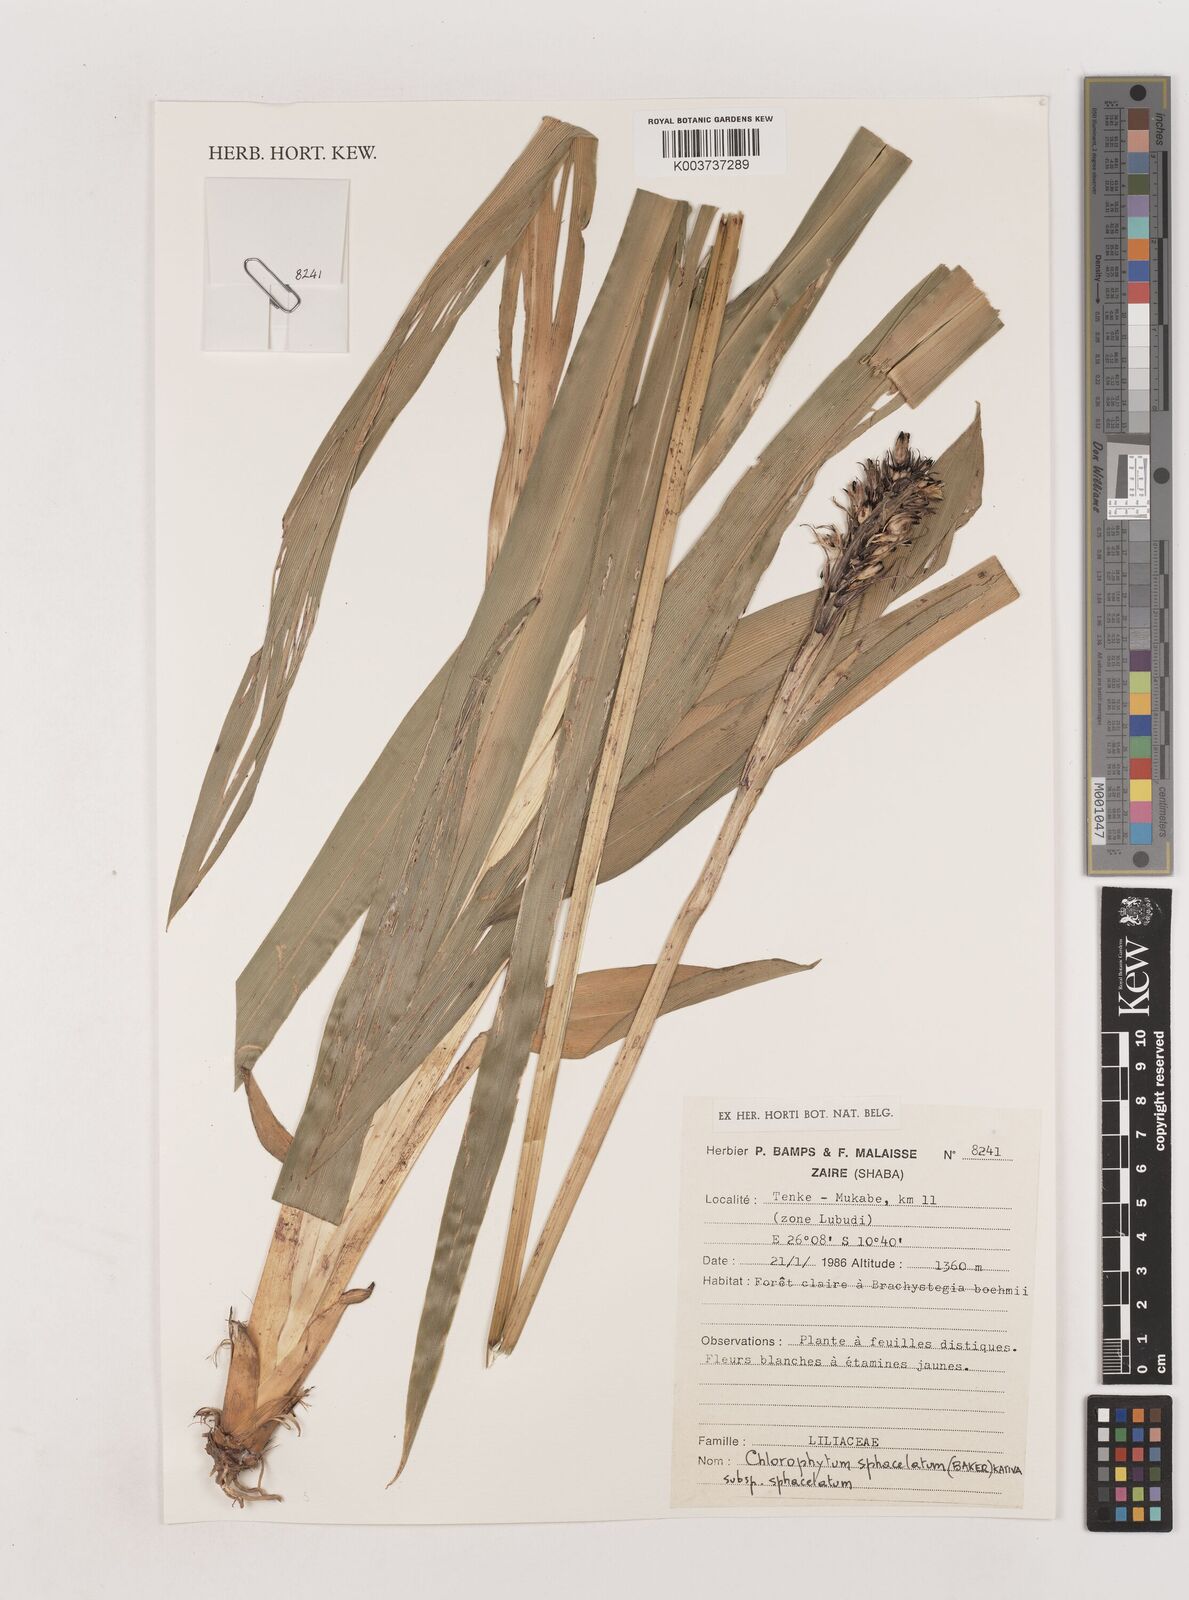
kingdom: Plantae
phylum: Tracheophyta
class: Liliopsida
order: Asparagales
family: Asparagaceae
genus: Chlorophytum
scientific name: Chlorophytum sphacelatum
